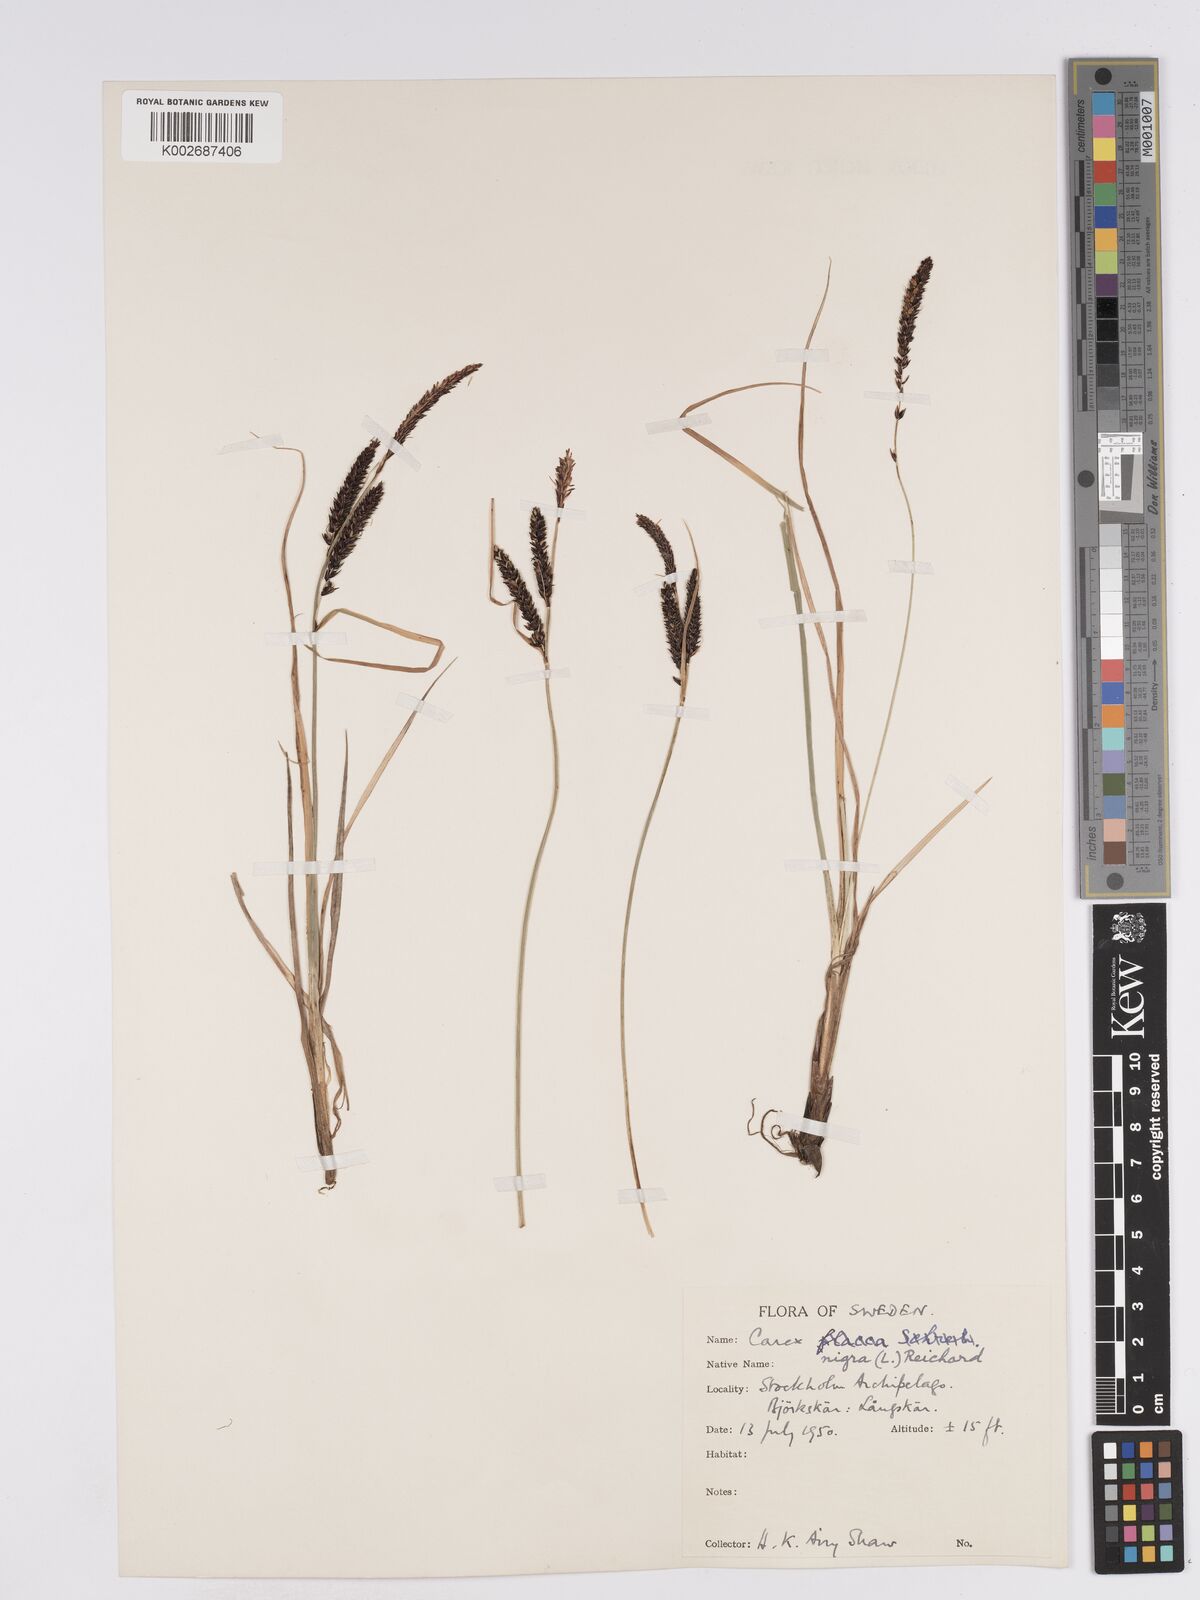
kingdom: Plantae
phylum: Tracheophyta
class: Liliopsida
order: Poales
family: Cyperaceae
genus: Carex
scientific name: Carex nigra
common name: Common sedge
